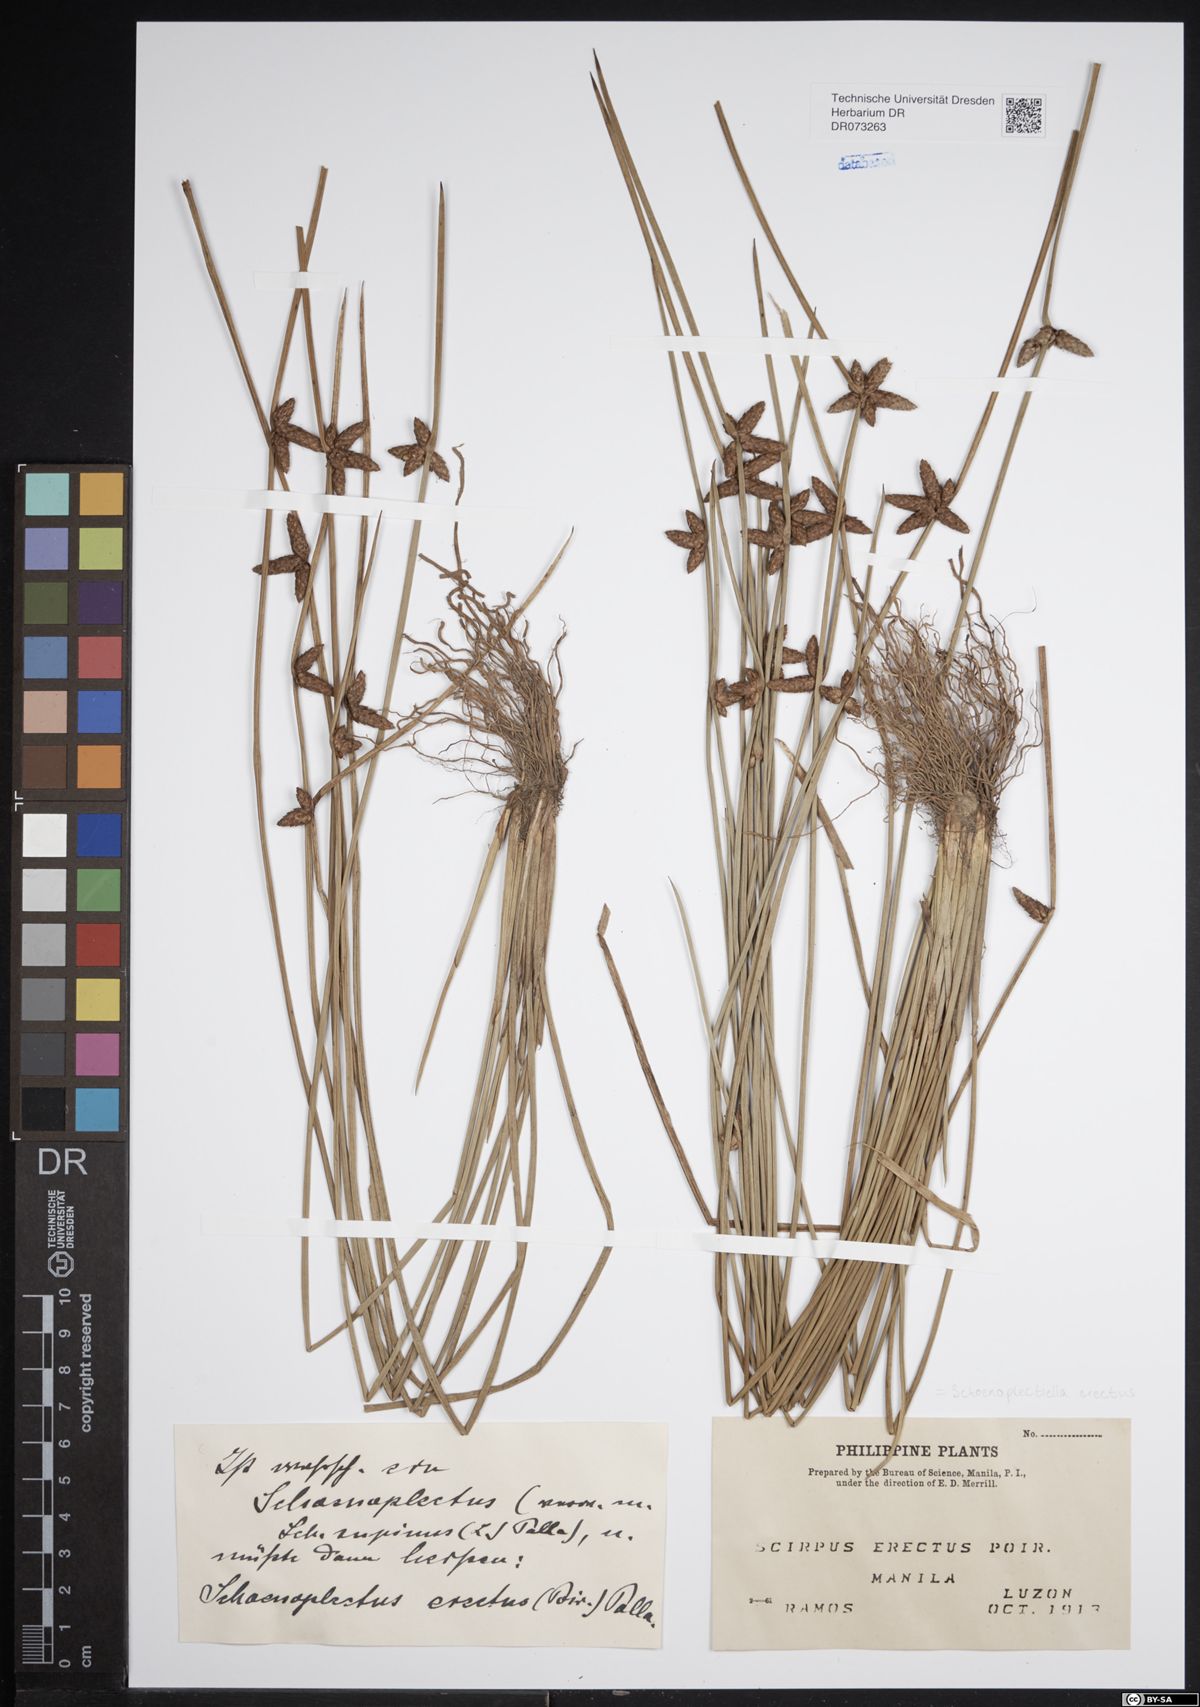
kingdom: Plantae
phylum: Tracheophyta
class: Liliopsida
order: Poales
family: Cyperaceae
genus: Schoenoplectiella
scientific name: Schoenoplectiella mucronata
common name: Bog bulrush
